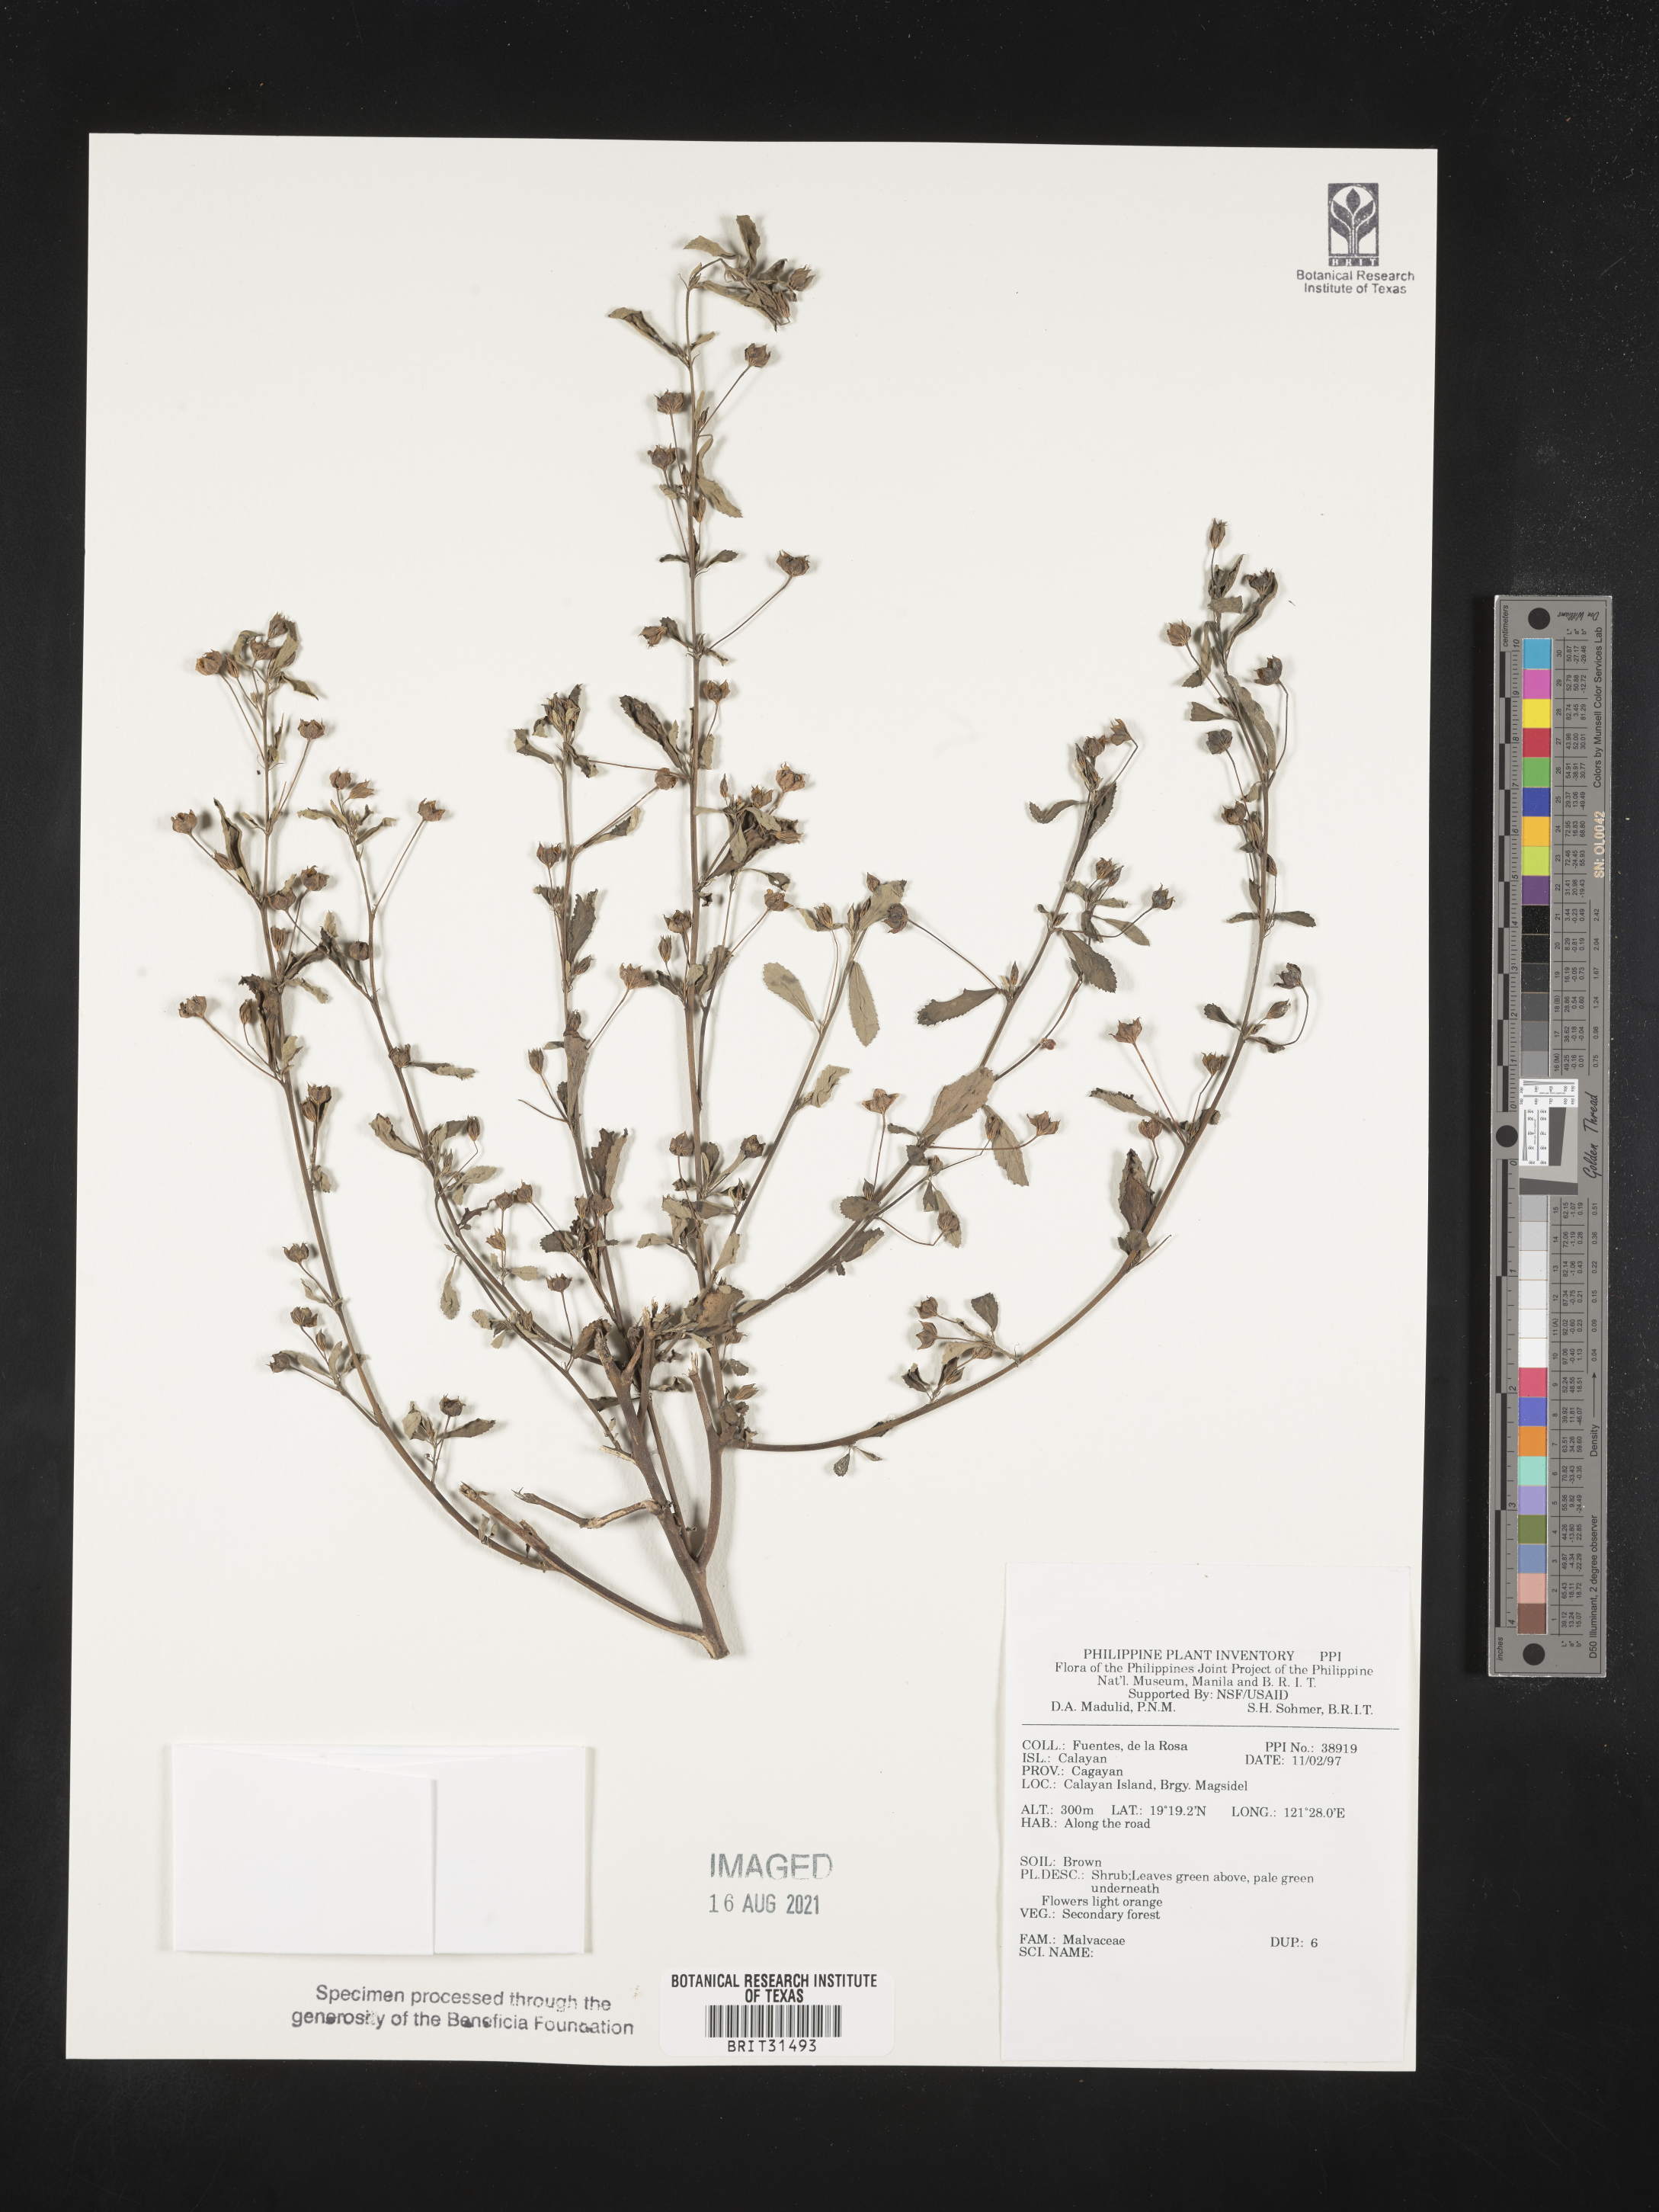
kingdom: Plantae
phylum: Tracheophyta
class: Magnoliopsida
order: Malvales
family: Malvaceae
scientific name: Malvaceae
